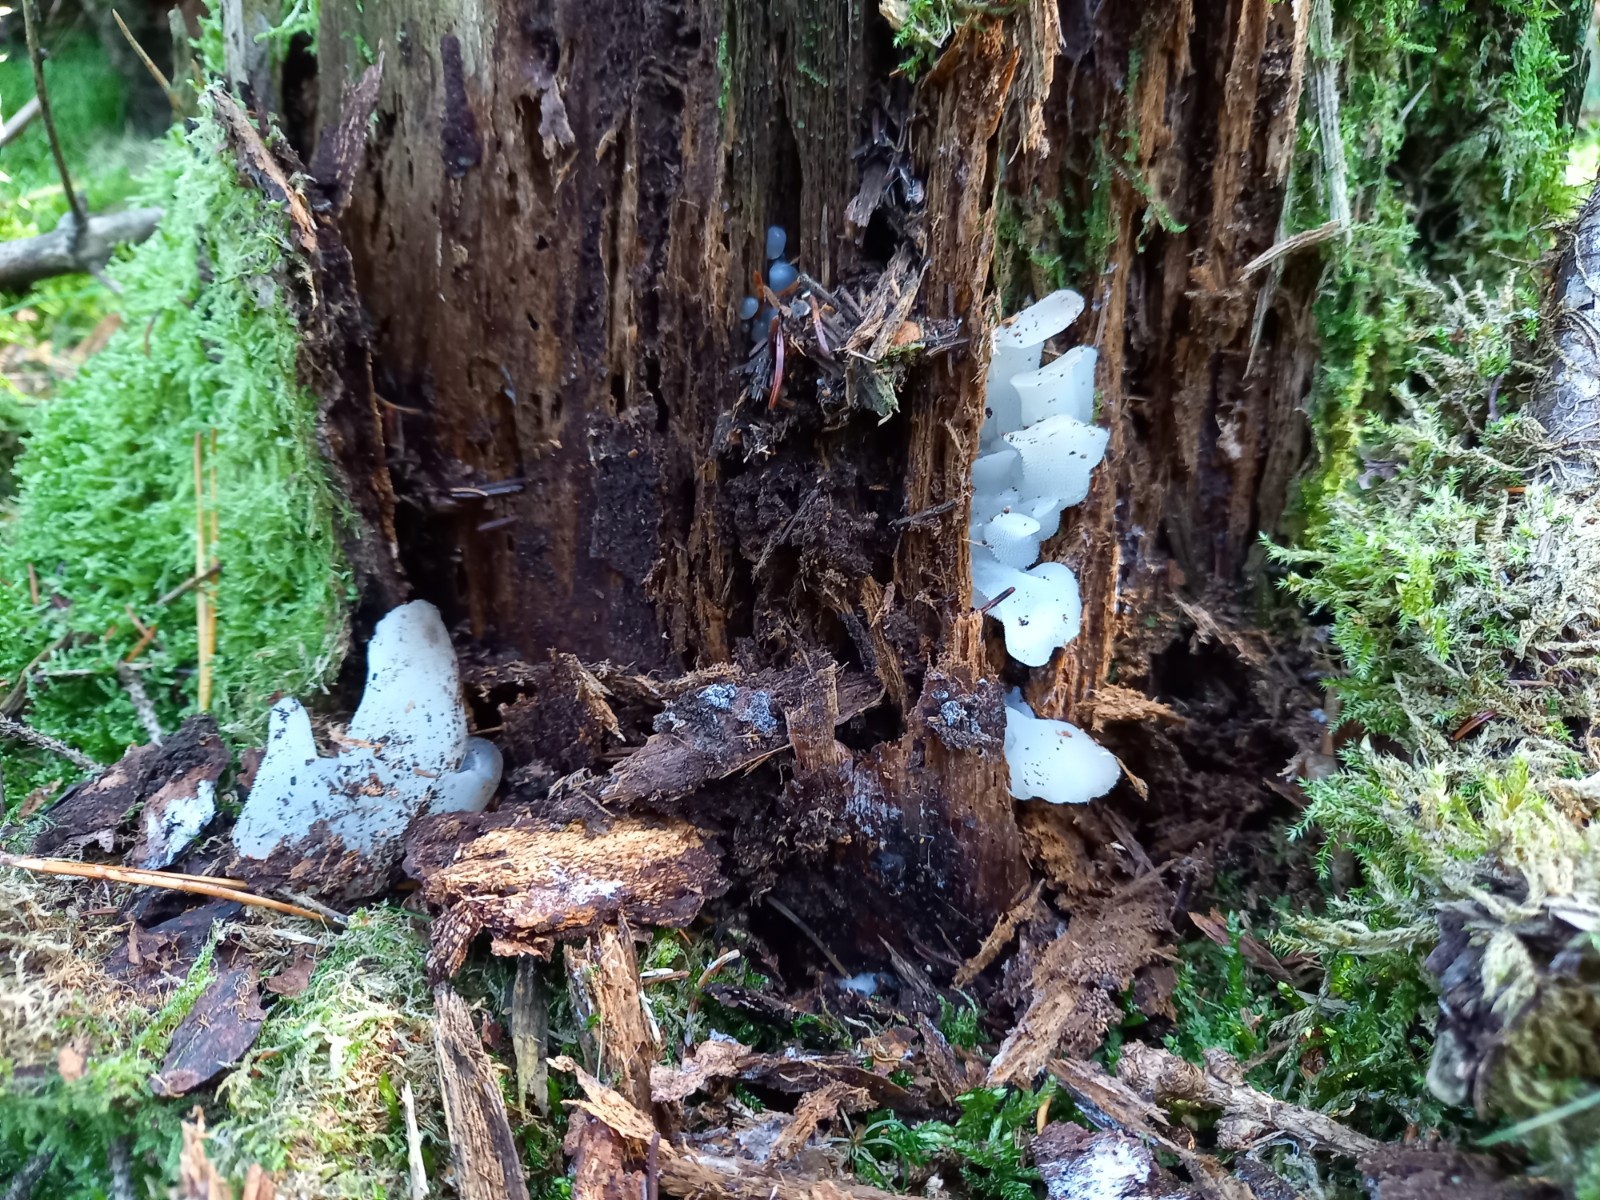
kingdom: Fungi
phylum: Basidiomycota
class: Agaricomycetes
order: Auriculariales
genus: Pseudohydnum
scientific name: Pseudohydnum gelatinosum
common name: bævretand
